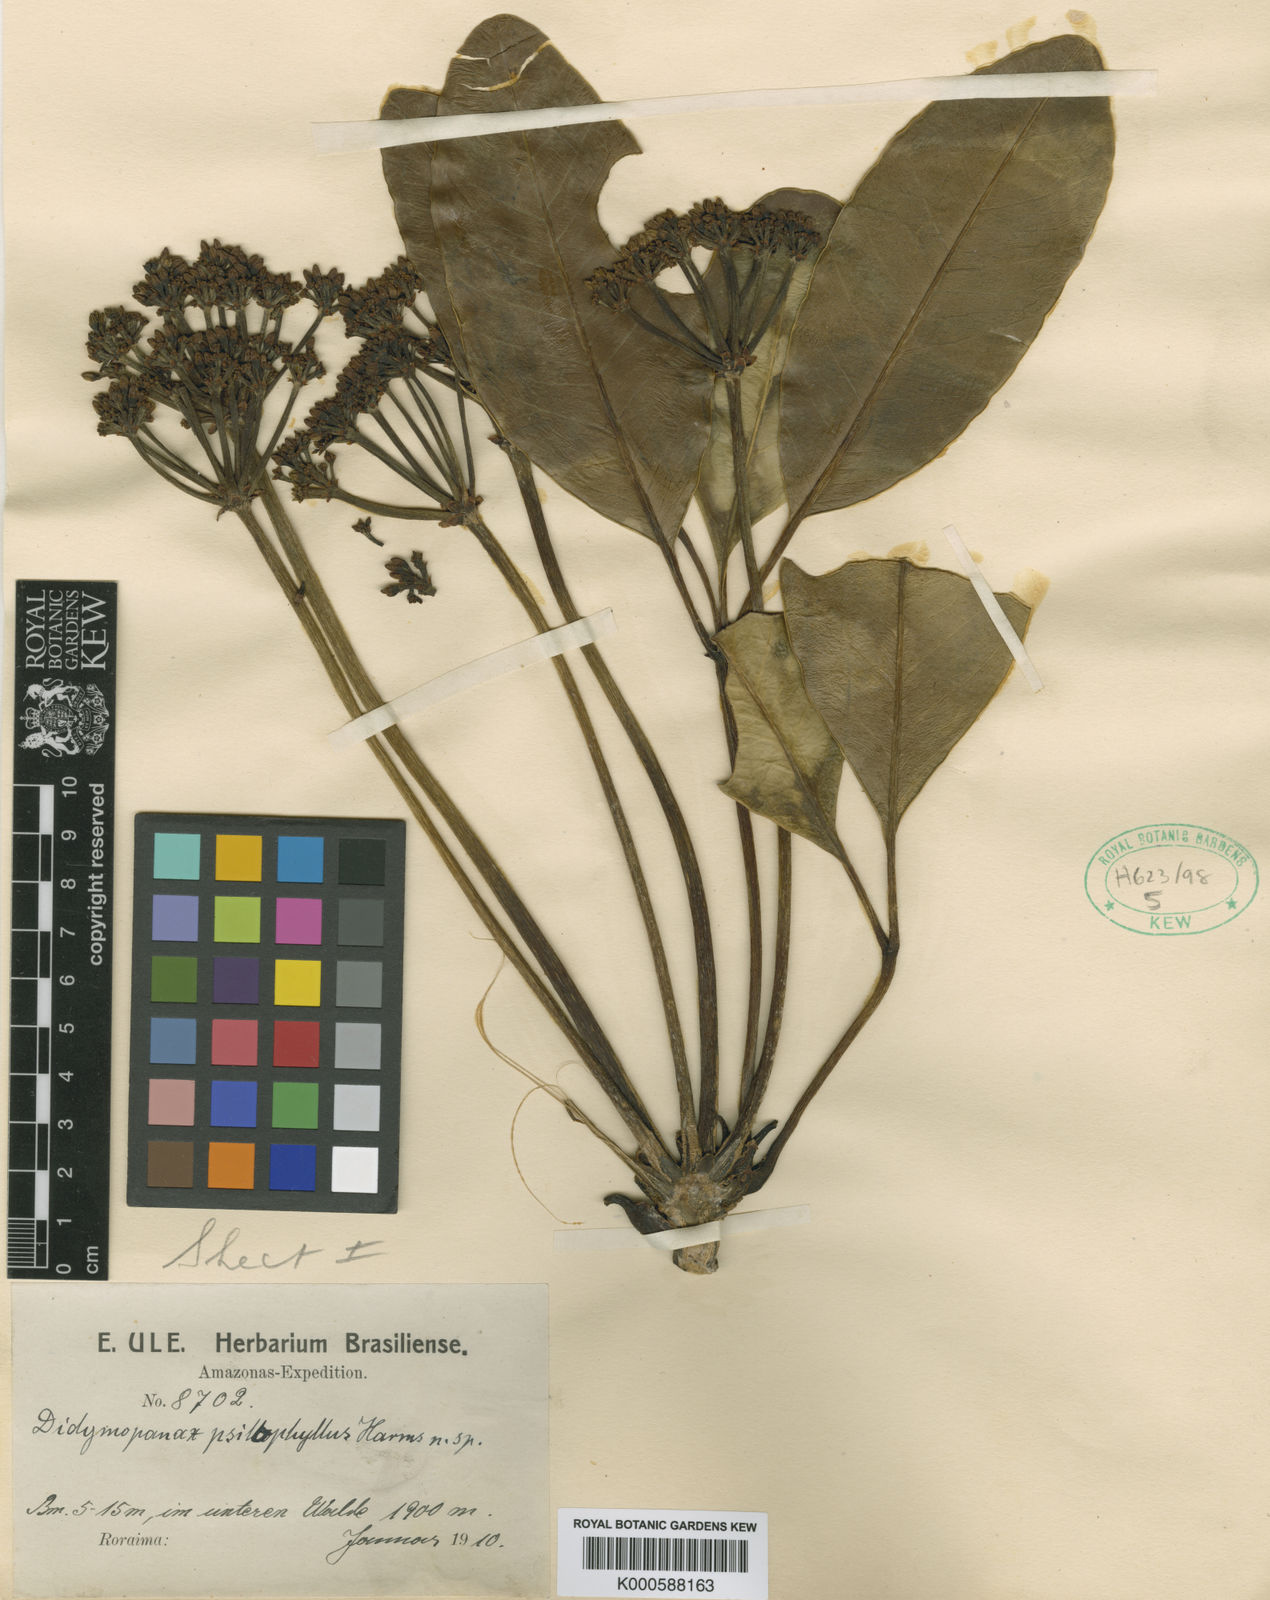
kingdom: Plantae
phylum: Tracheophyta
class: Magnoliopsida
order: Apiales
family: Araliaceae
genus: Crepinella
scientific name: Crepinella
